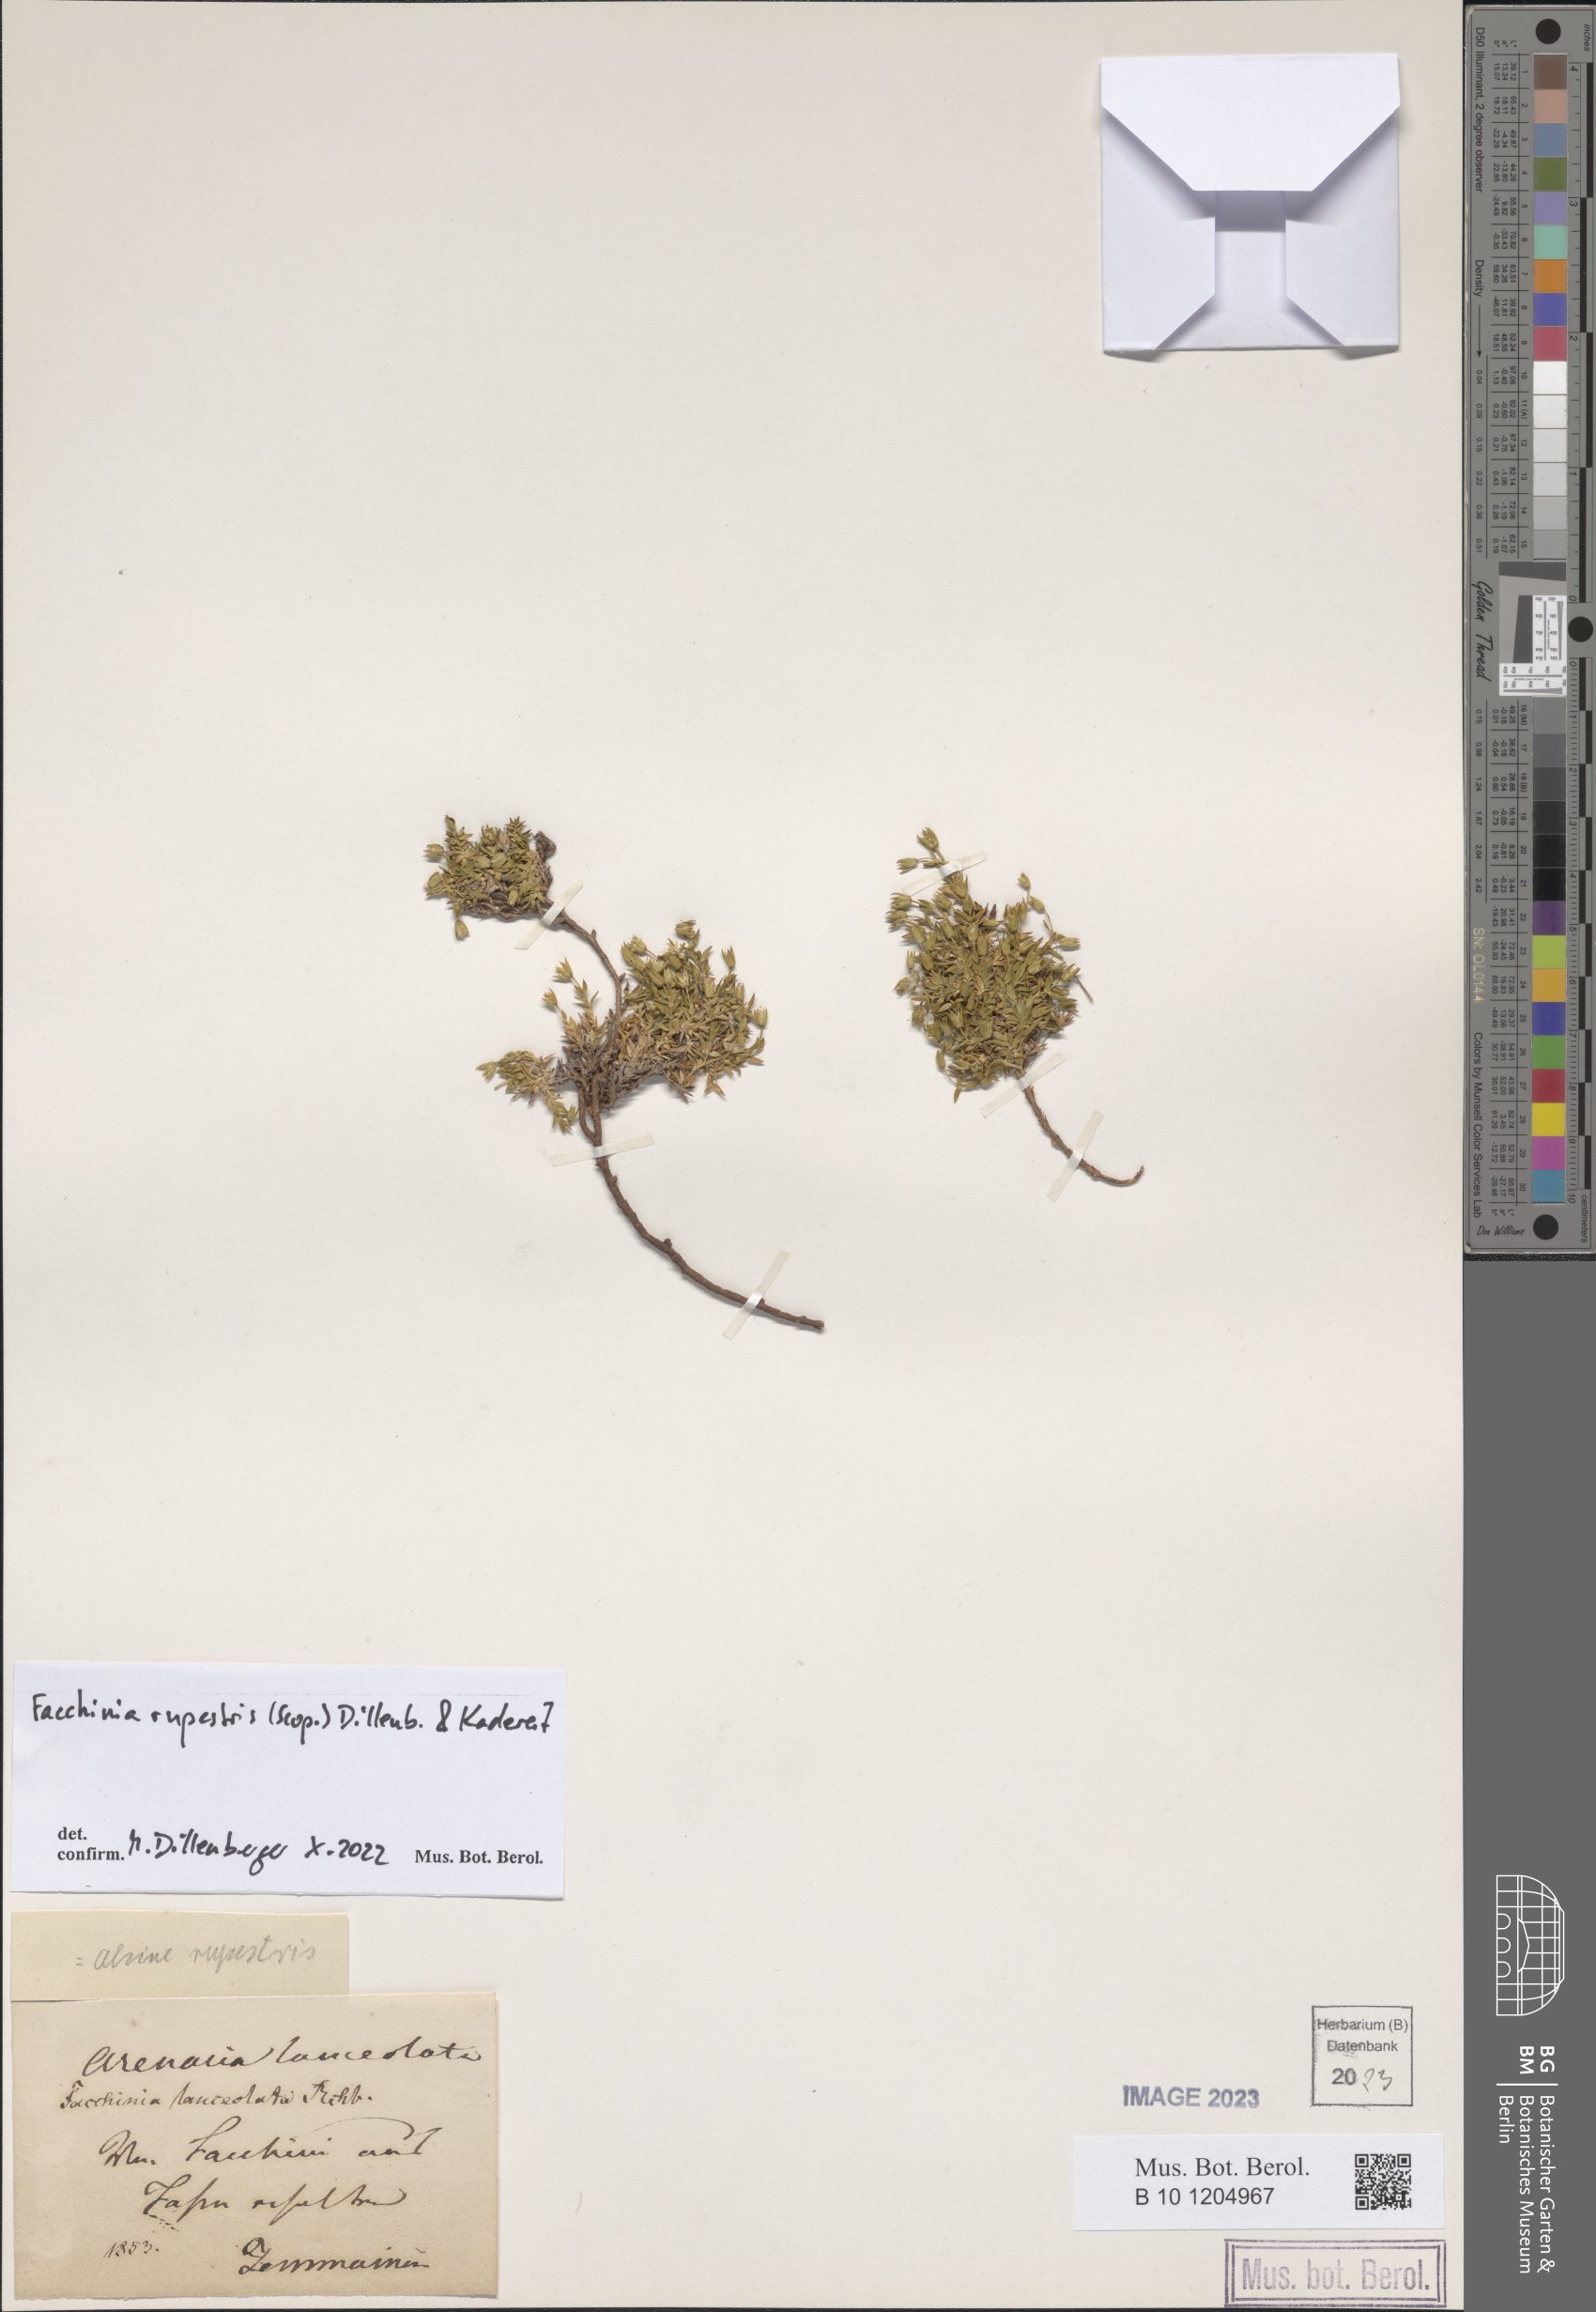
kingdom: Plantae
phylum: Tracheophyta
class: Magnoliopsida
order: Caryophyllales
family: Caryophyllaceae
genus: Facchinia
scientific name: Facchinia rupestris
